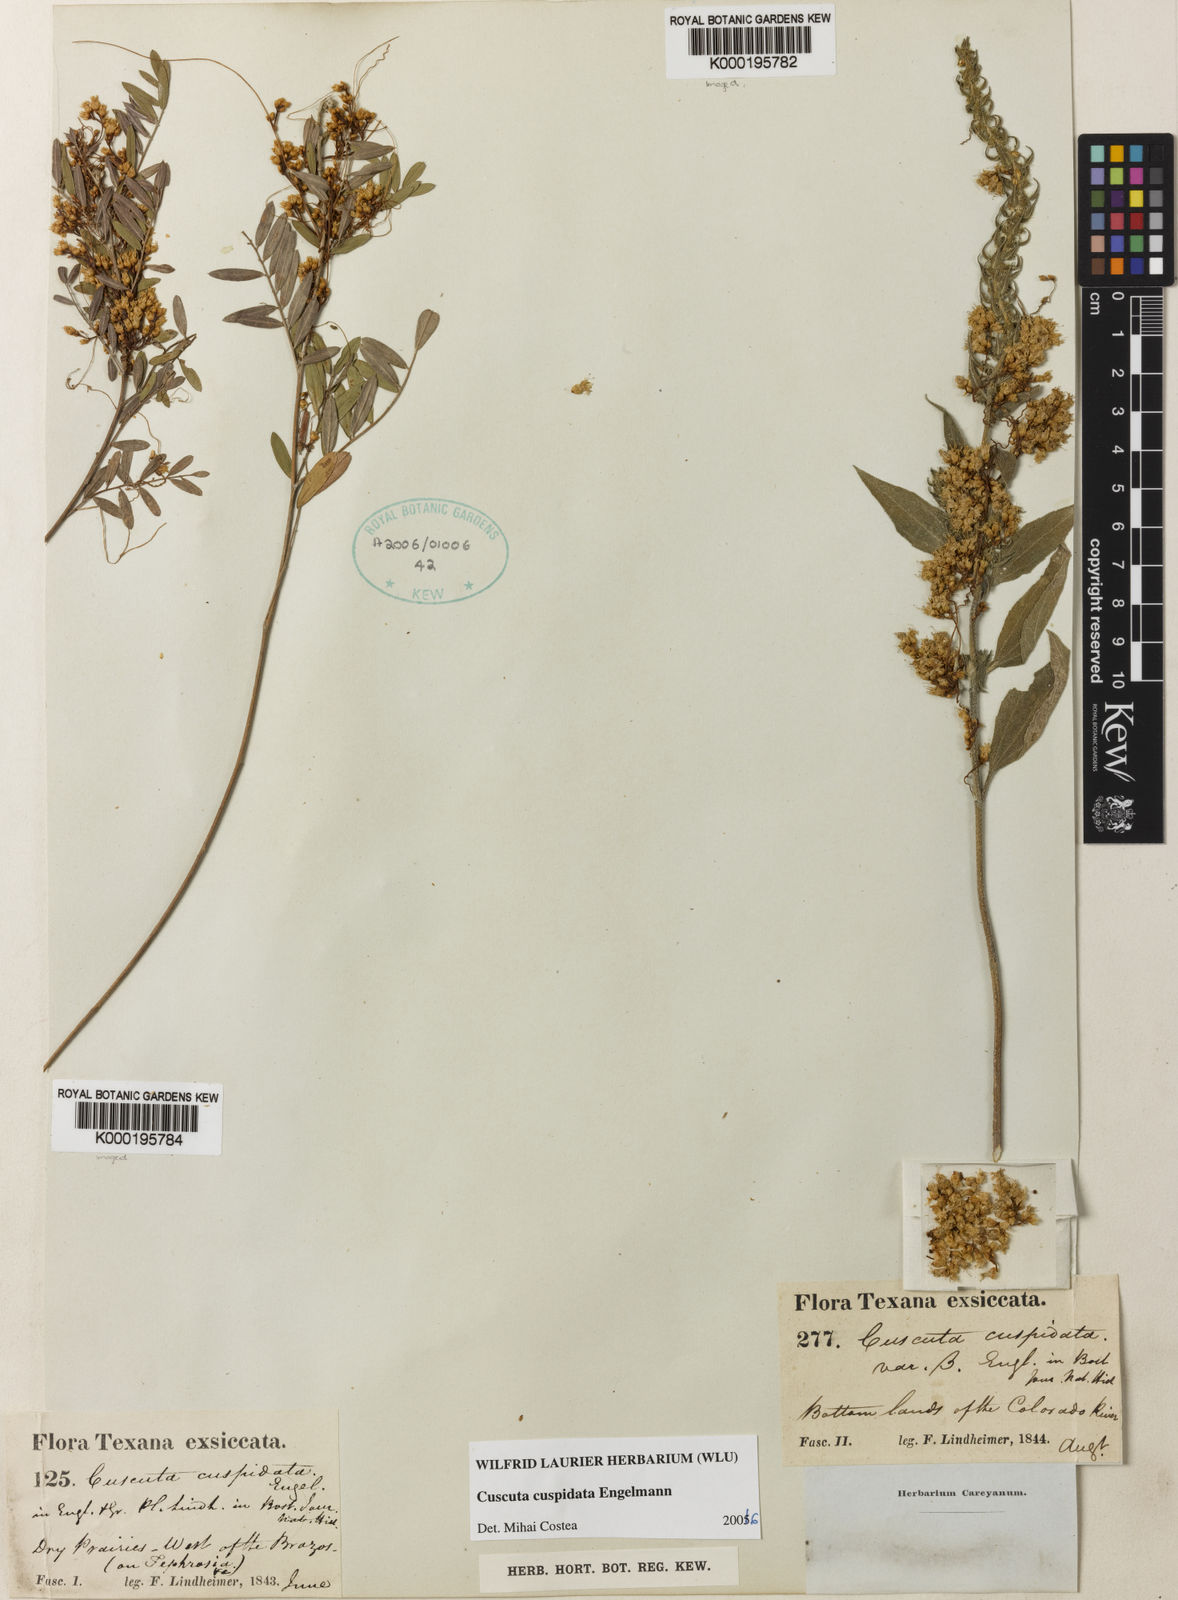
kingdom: Plantae
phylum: Tracheophyta
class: Magnoliopsida
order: Solanales
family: Convolvulaceae
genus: Cuscuta
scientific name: Cuscuta cuspidata
